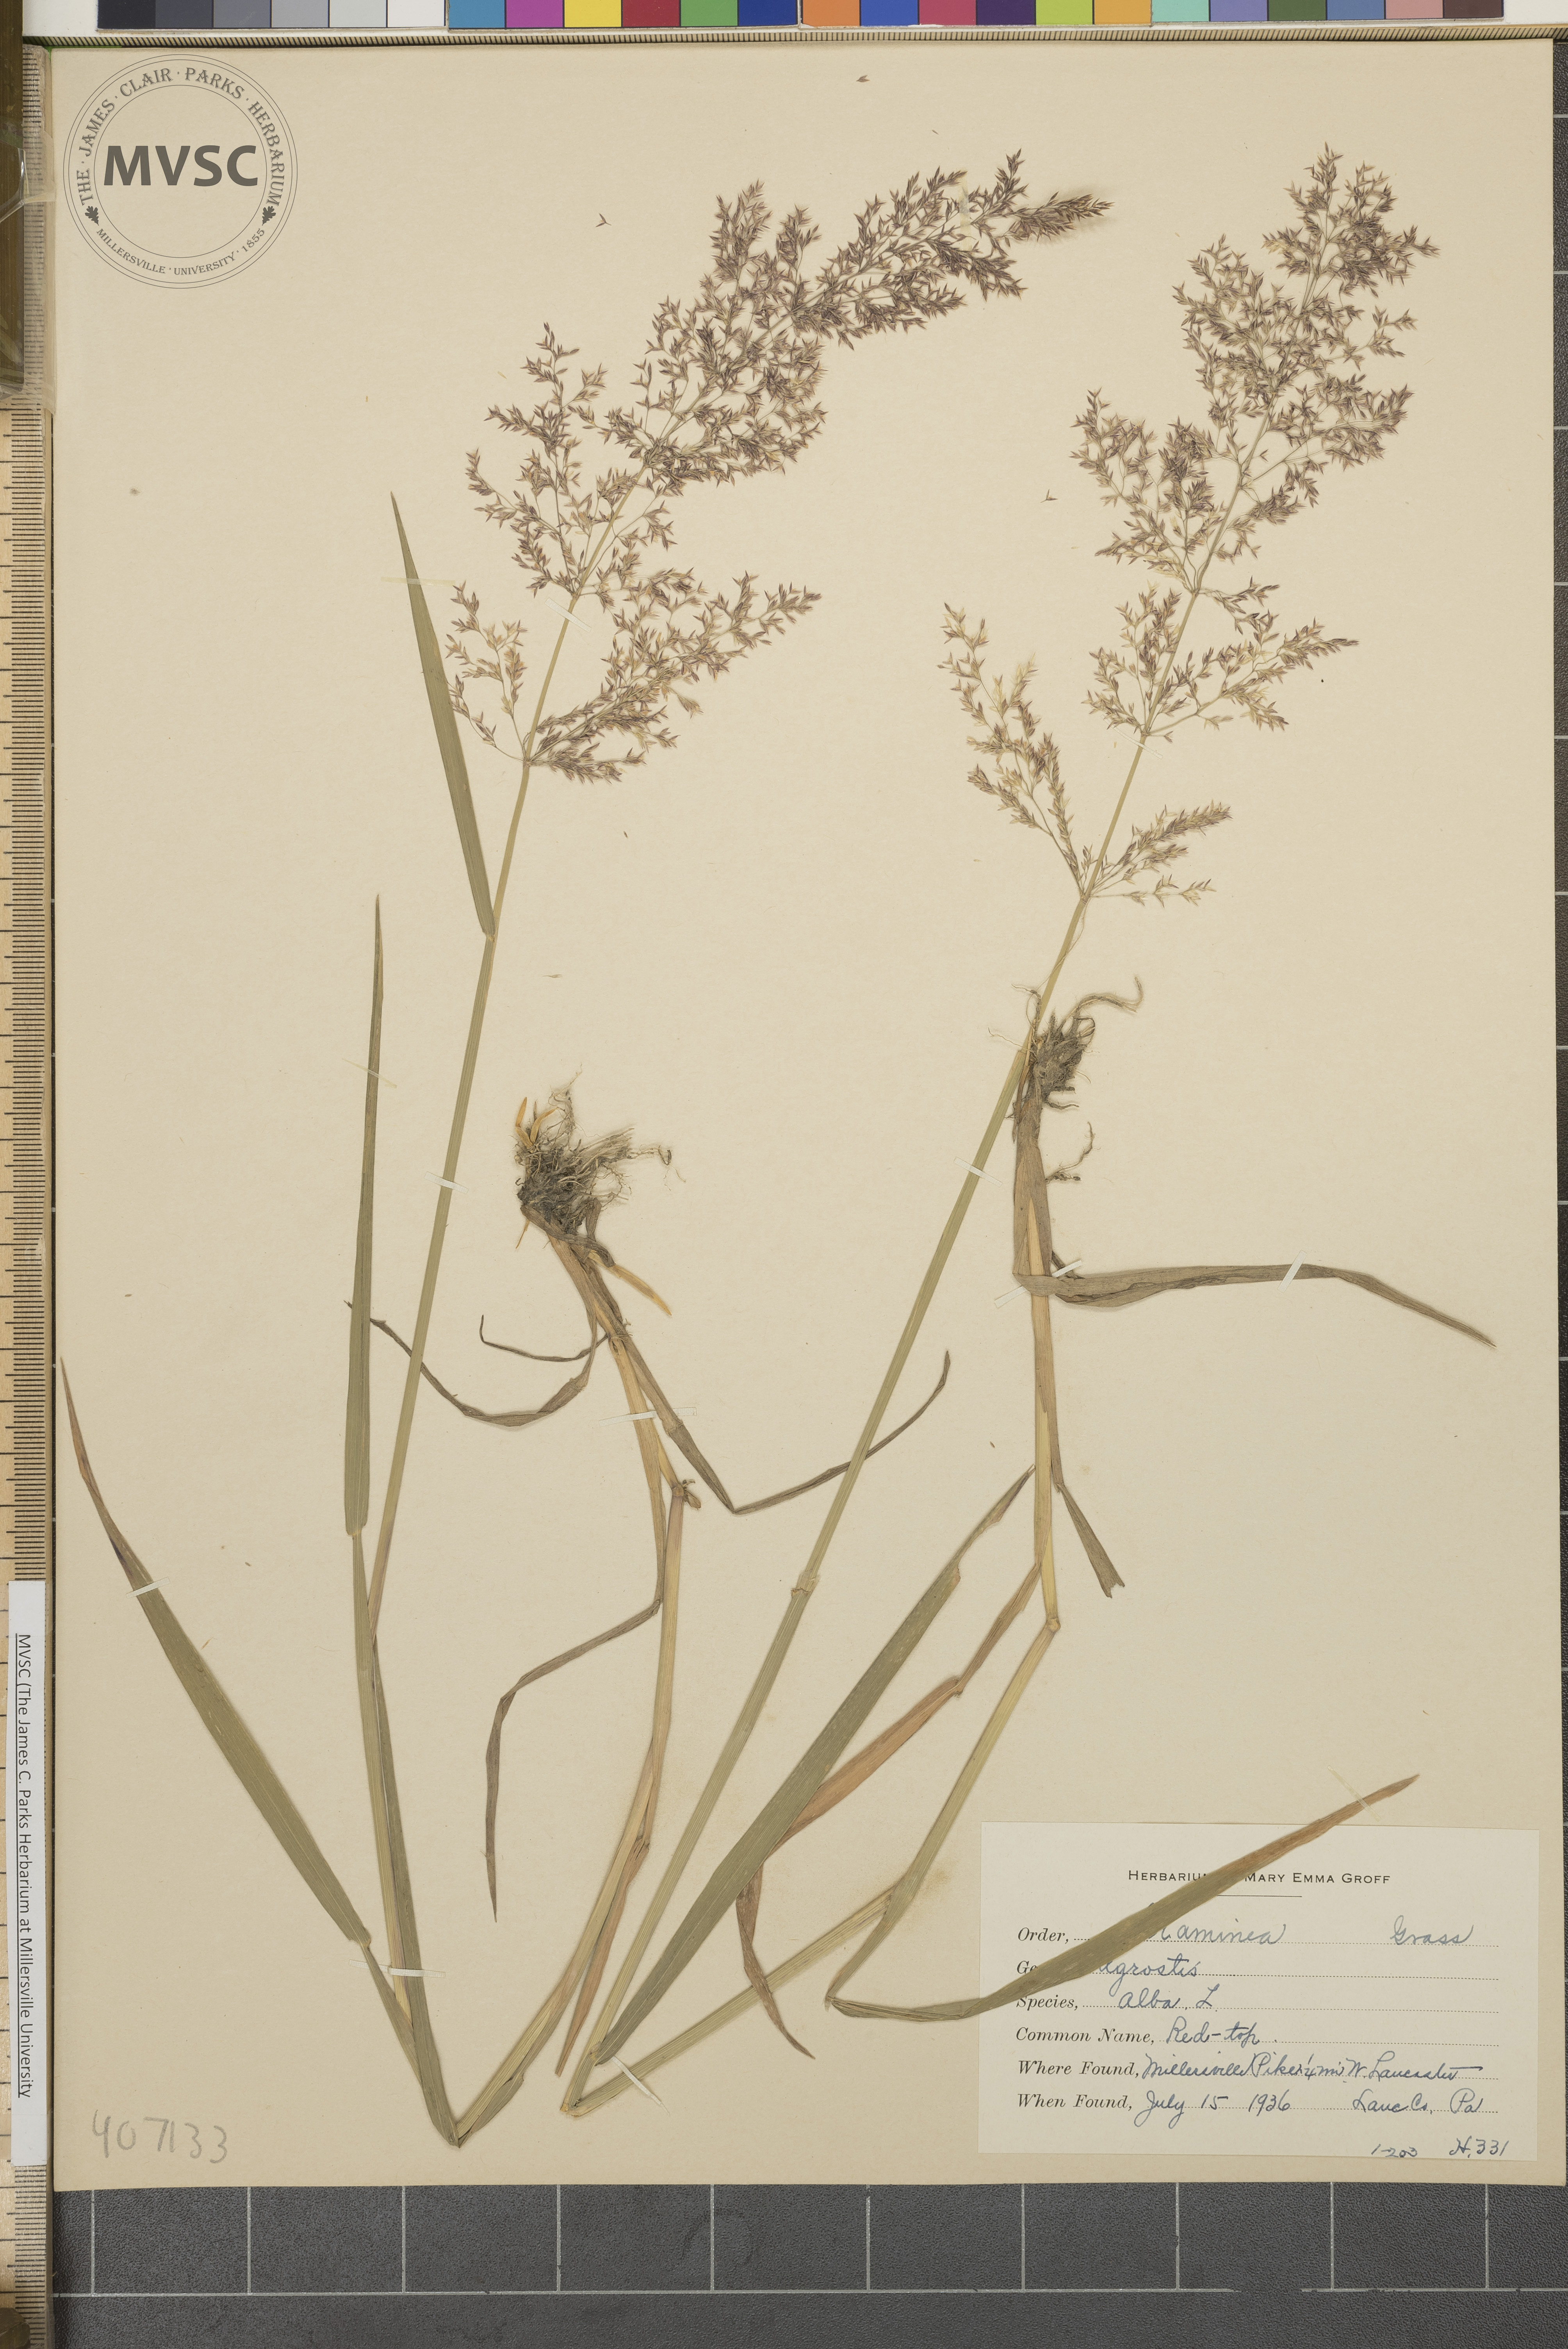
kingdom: Plantae
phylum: Tracheophyta
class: Liliopsida
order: Poales
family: Poaceae
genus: Agrostis
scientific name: Agrostis alba
